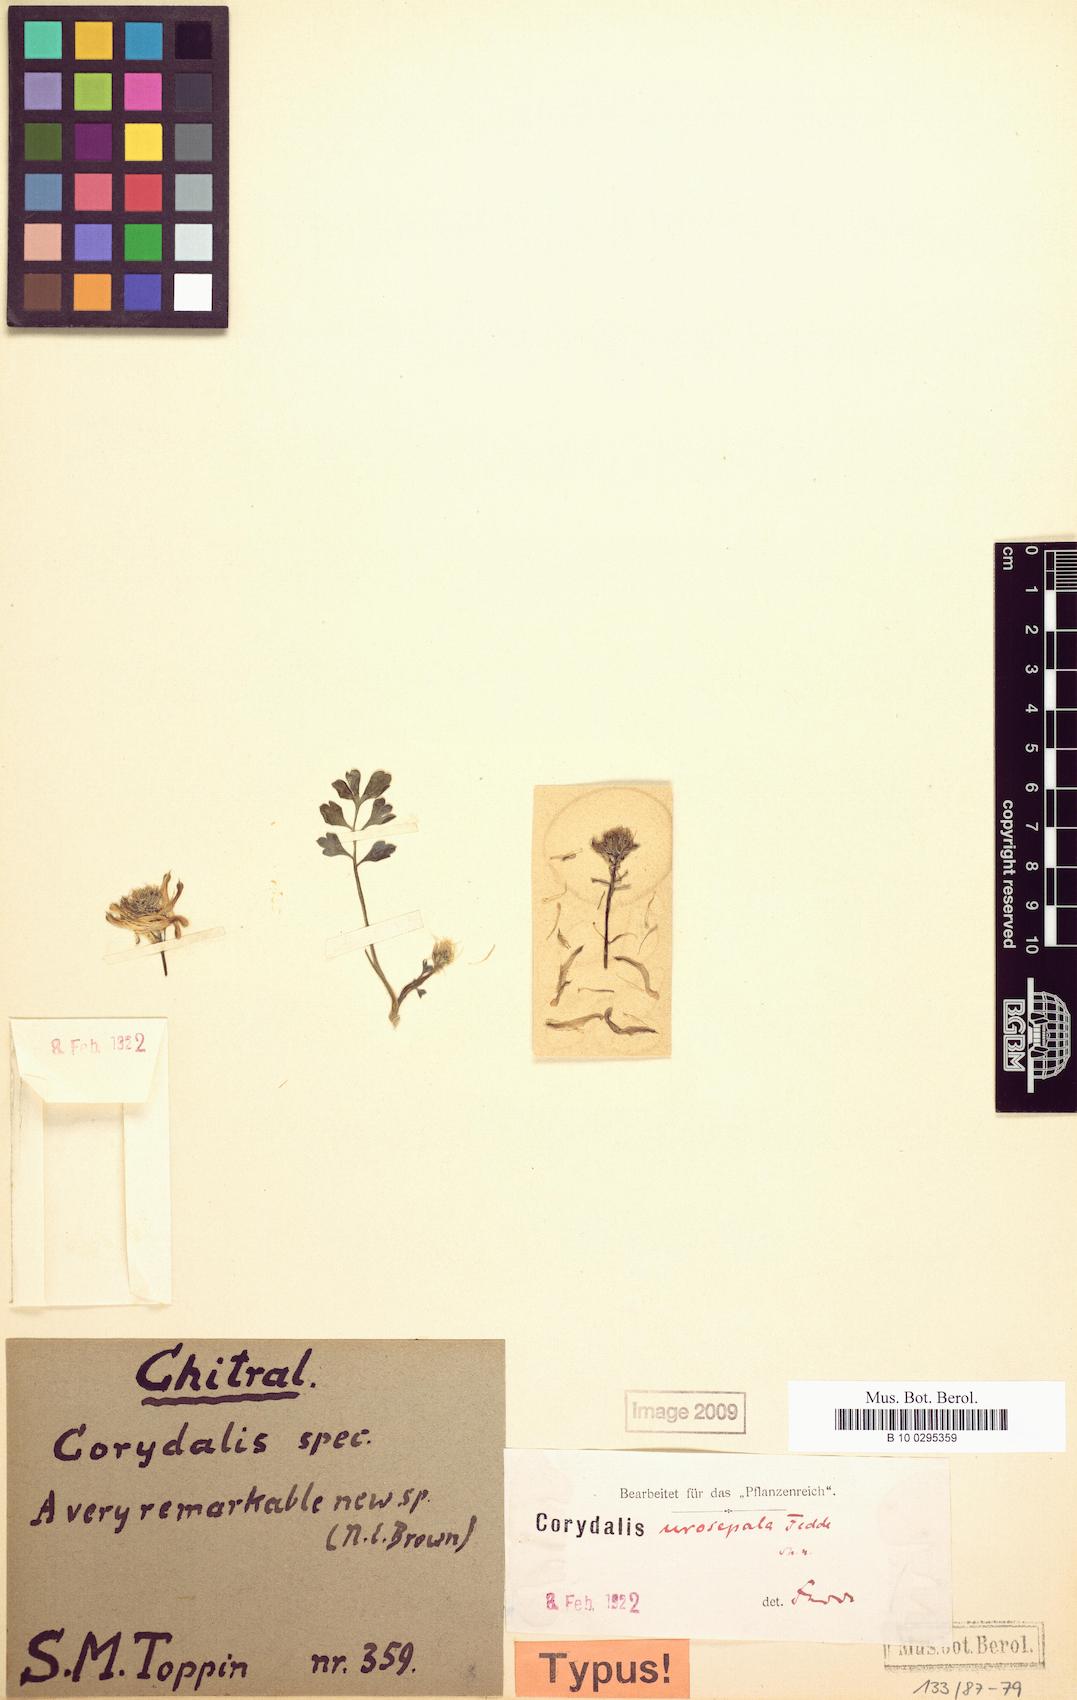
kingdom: Plantae
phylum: Tracheophyta
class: Magnoliopsida
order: Ranunculales
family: Papaveraceae
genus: Corydalis
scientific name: Corydalis fimbrillifera
